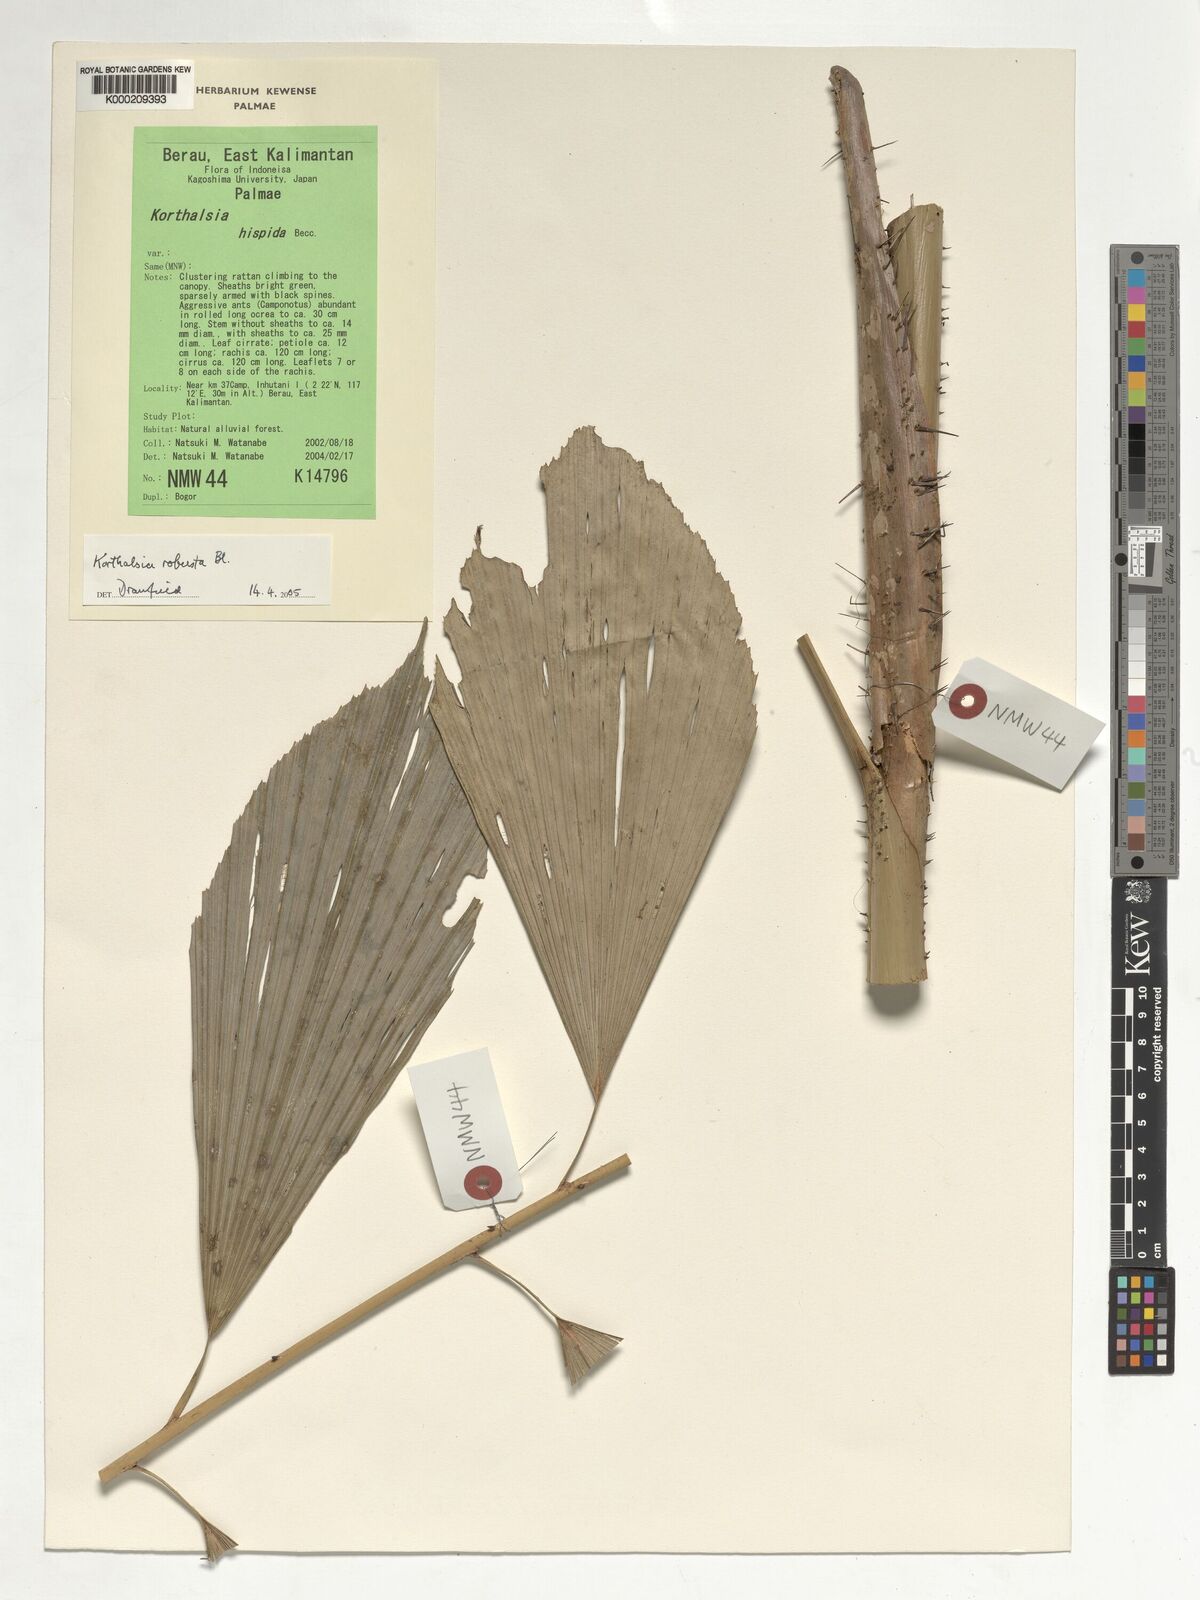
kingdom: Plantae
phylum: Tracheophyta
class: Liliopsida
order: Arecales
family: Arecaceae
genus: Korthalsia
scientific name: Korthalsia robusta
